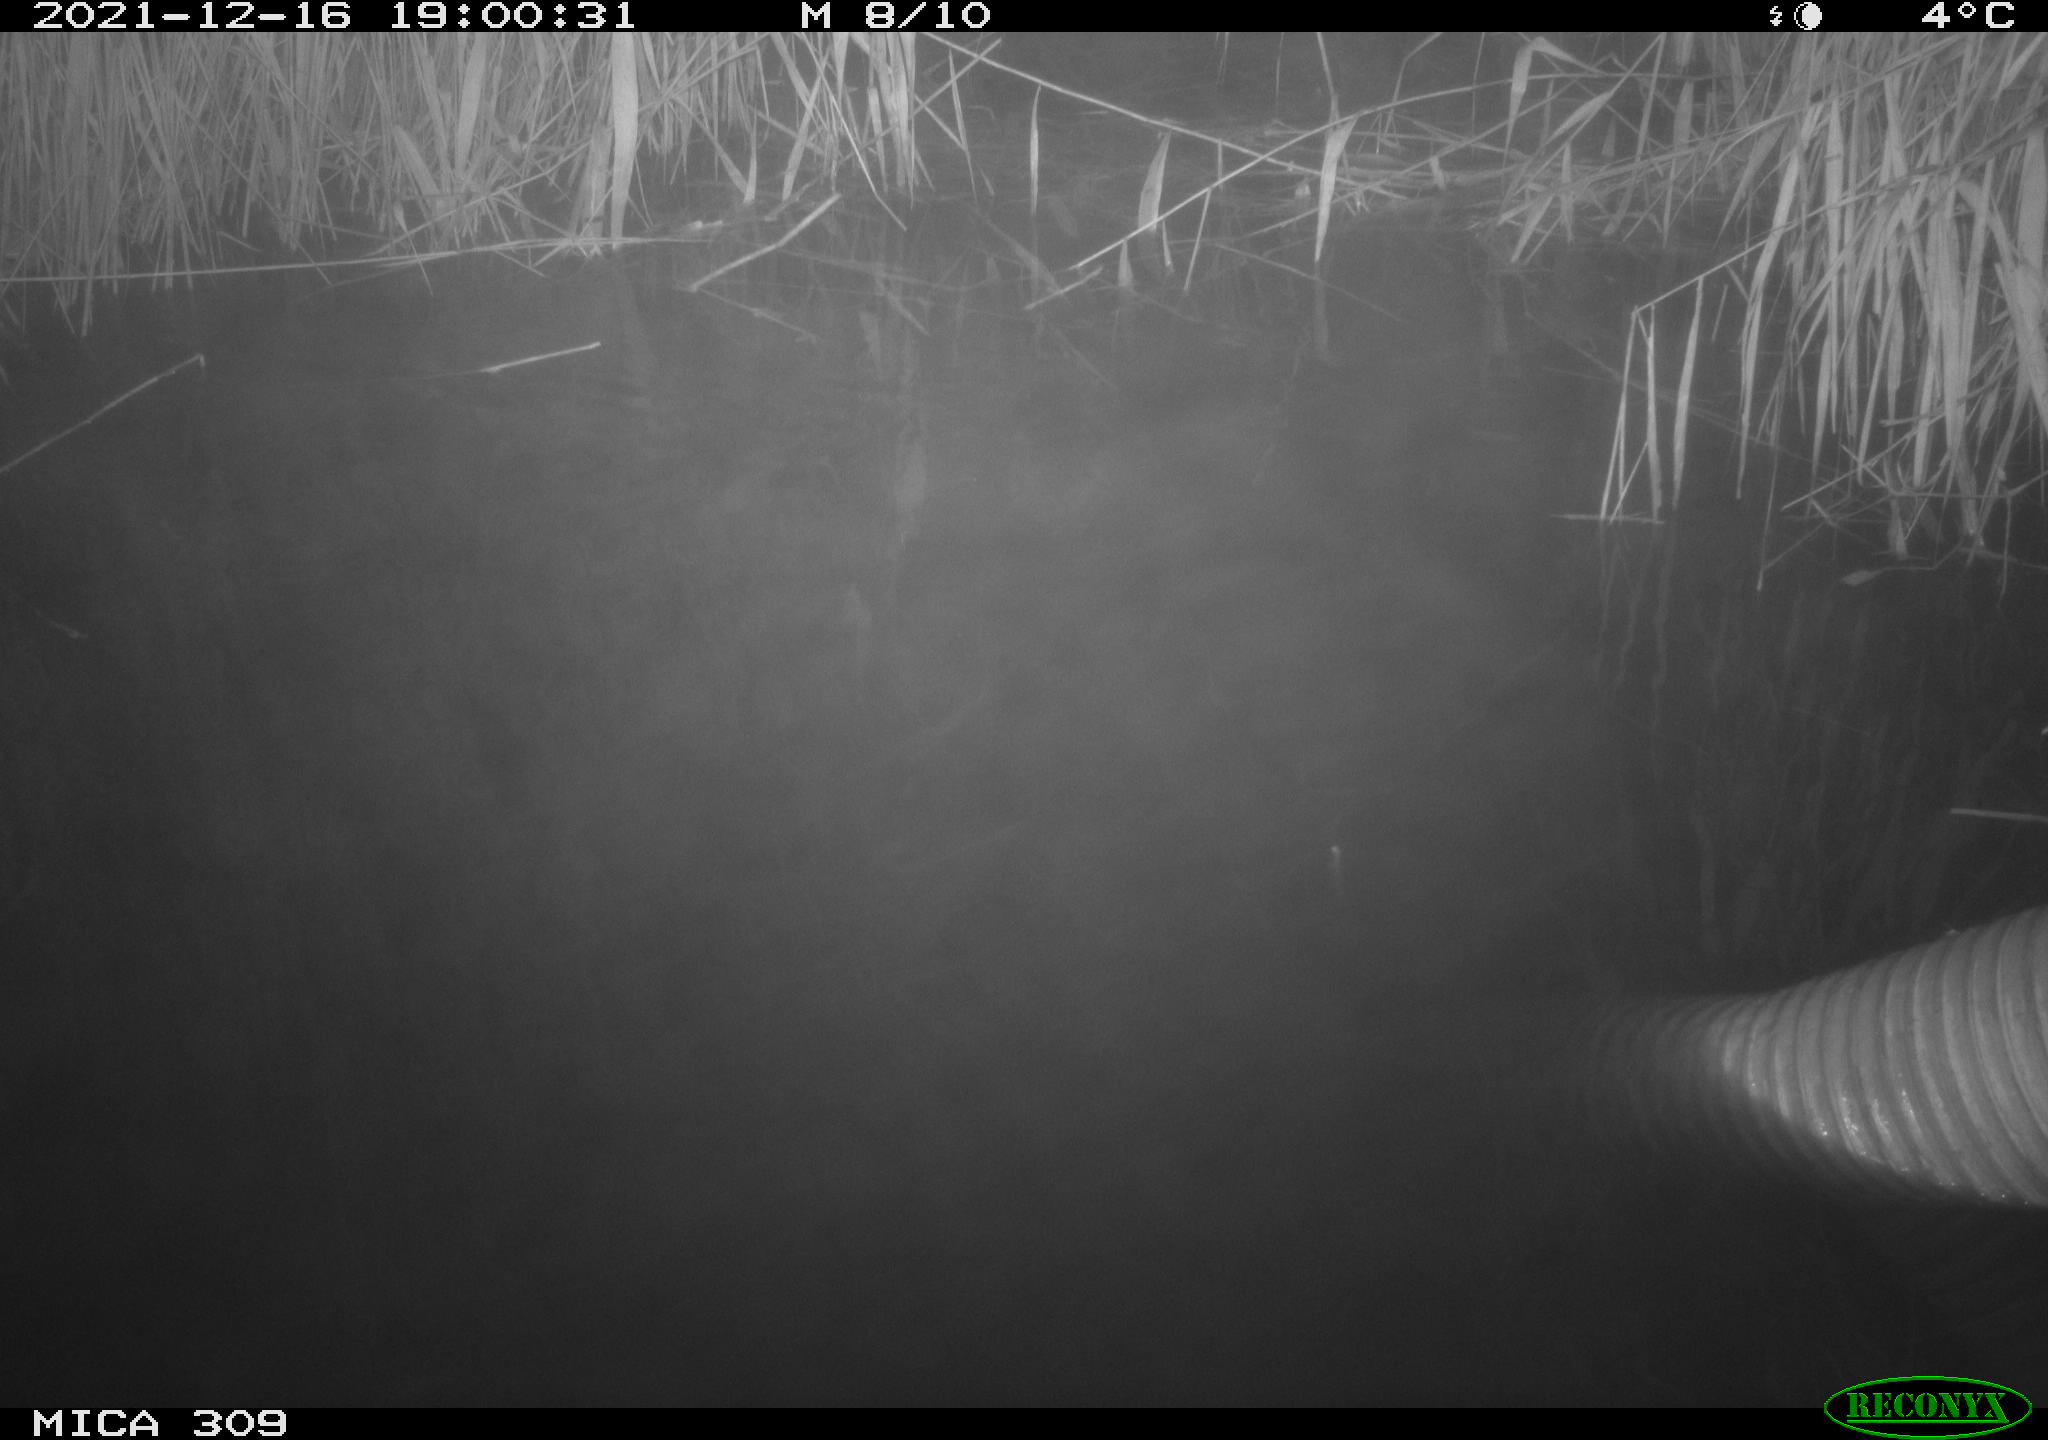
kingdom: Animalia
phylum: Chordata
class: Mammalia
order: Rodentia
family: Muridae
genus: Rattus
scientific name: Rattus norvegicus
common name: Brown rat
